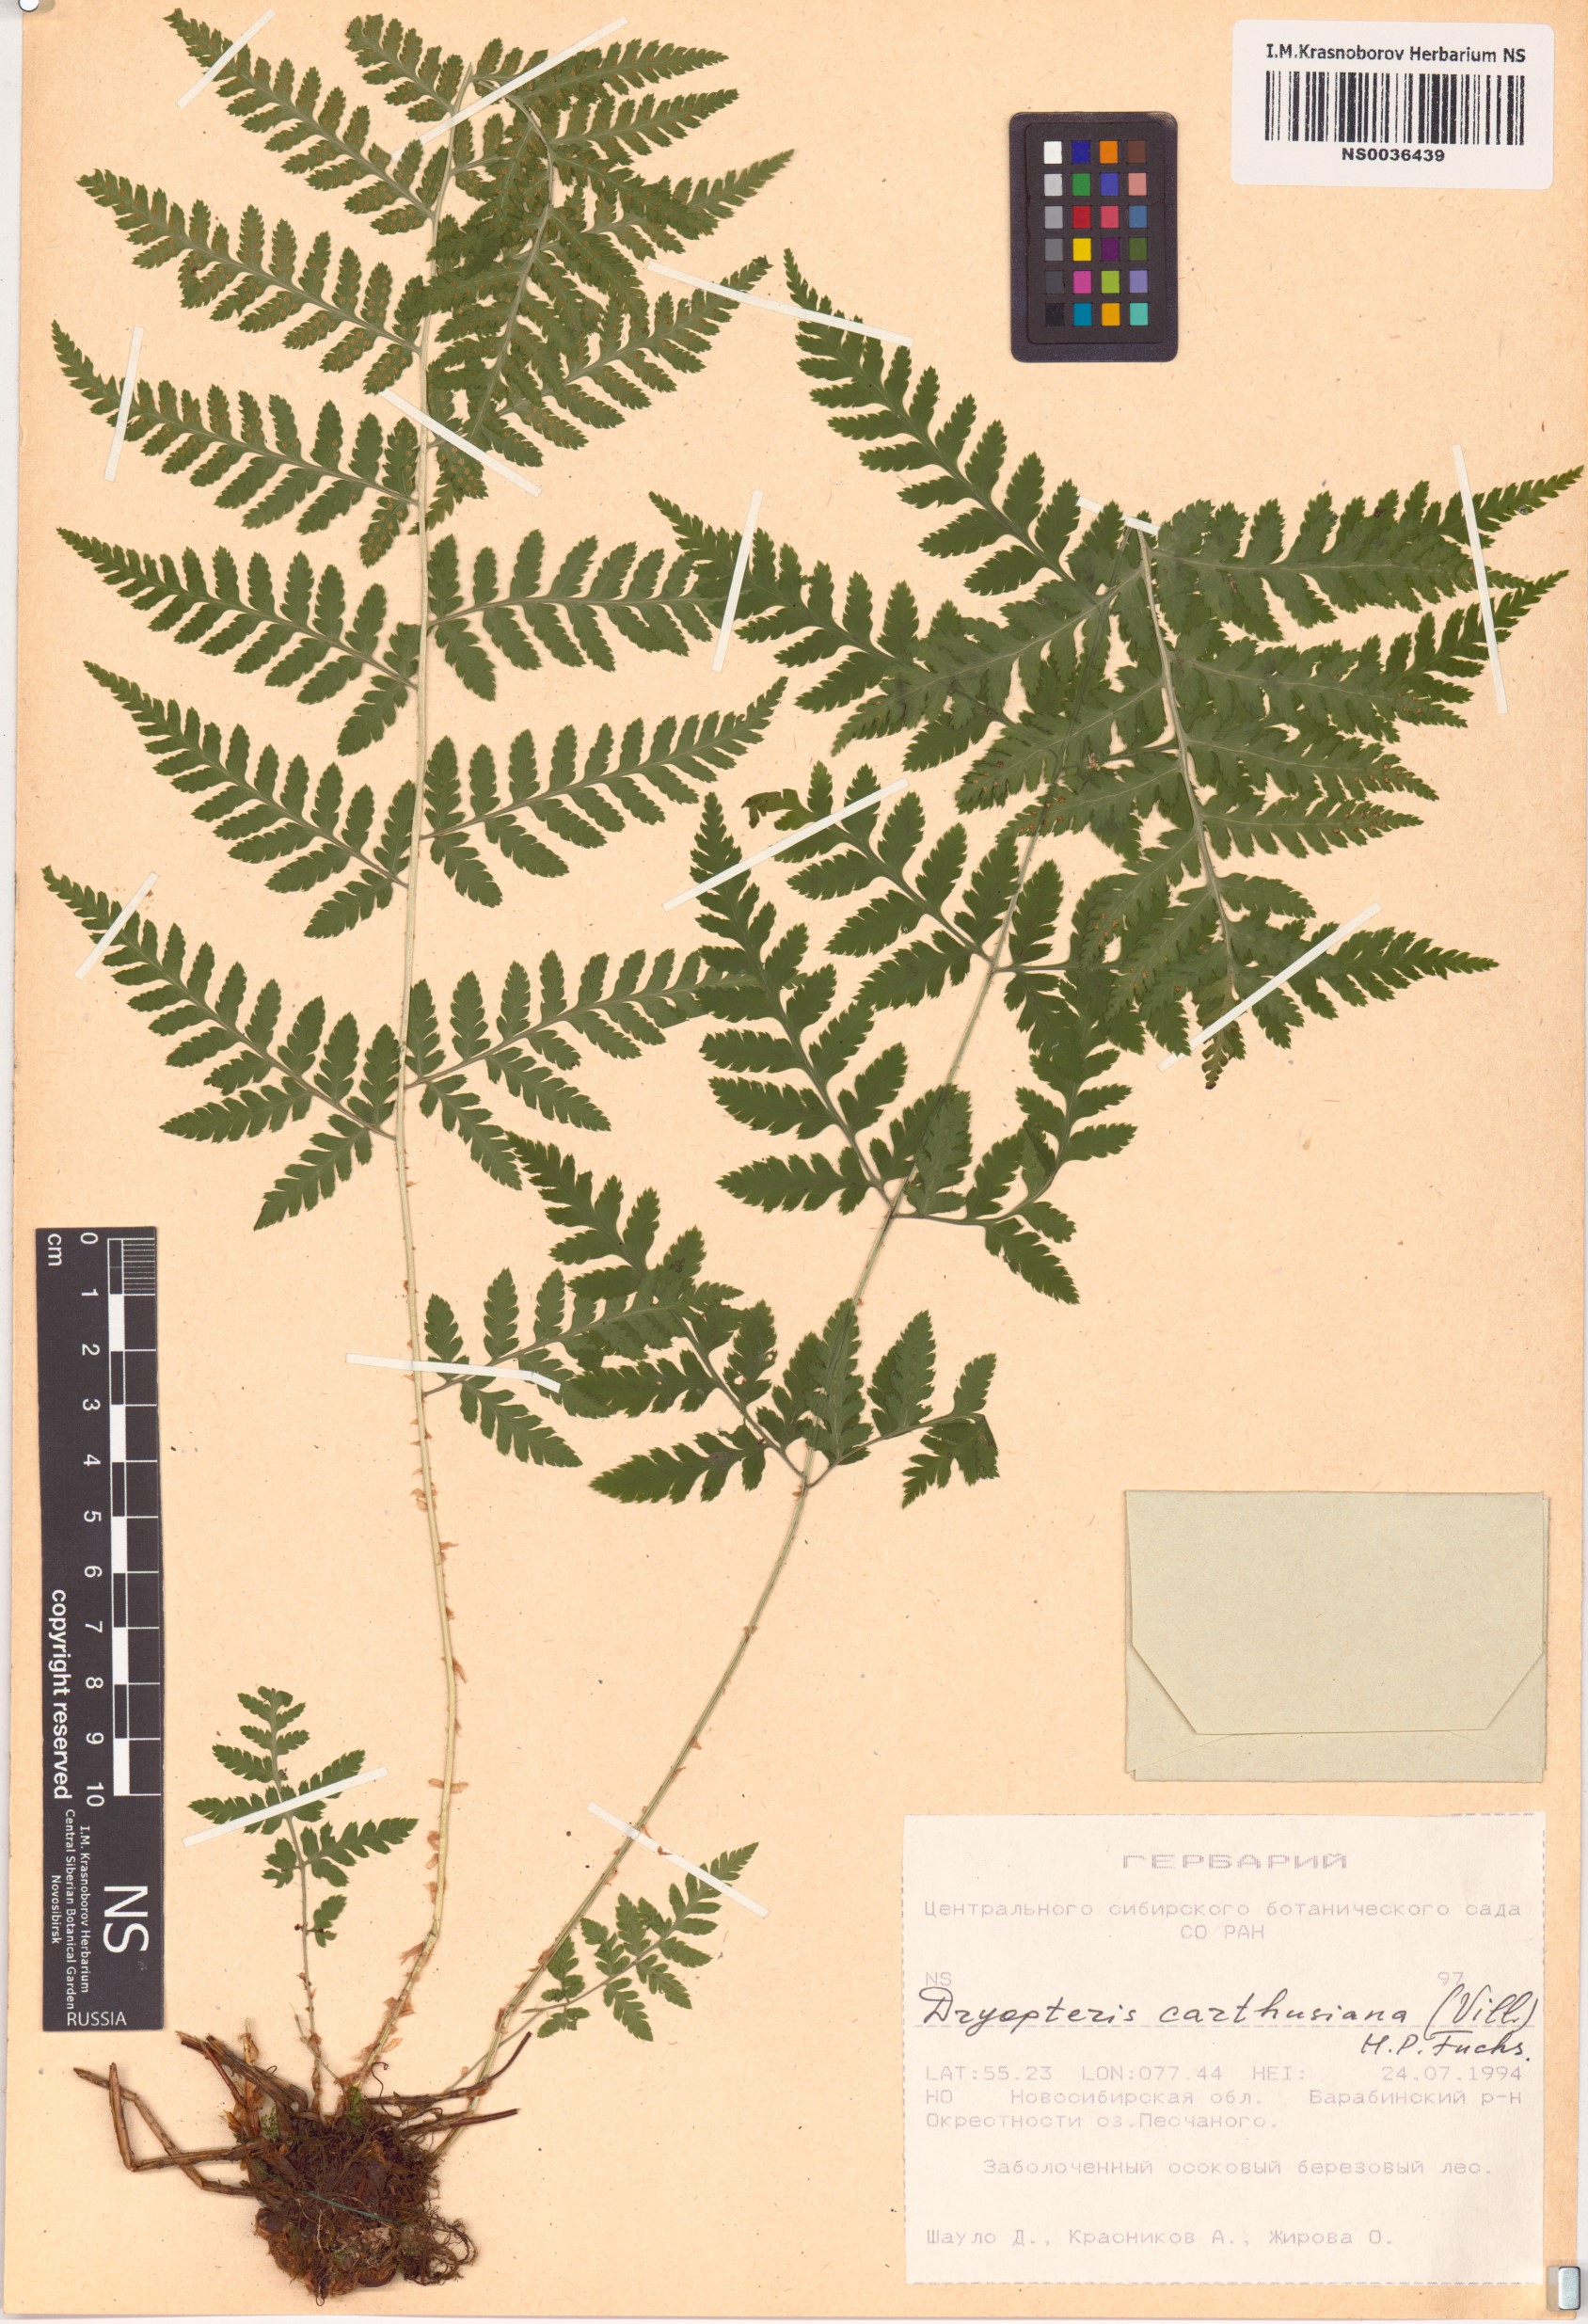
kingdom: Plantae
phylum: Tracheophyta
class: Polypodiopsida
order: Polypodiales
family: Dryopteridaceae
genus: Dryopteris
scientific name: Dryopteris carthusiana
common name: Narrow buckler-fern
